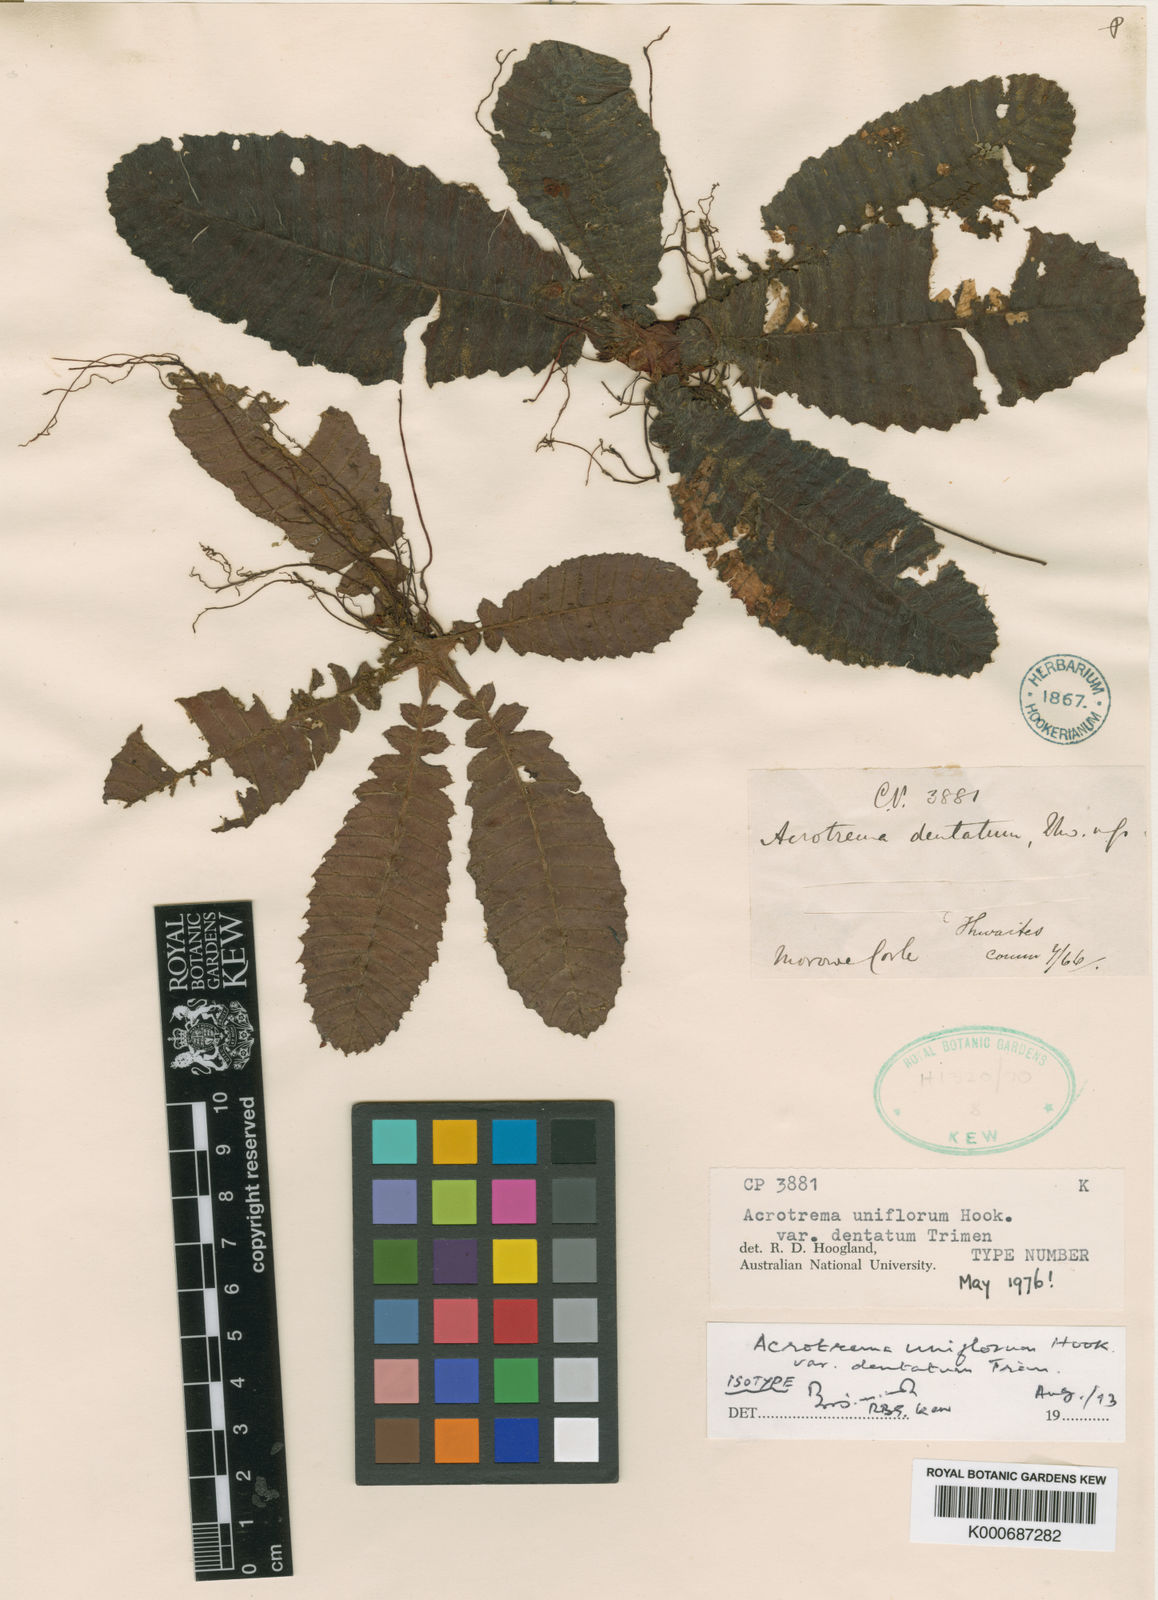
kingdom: Plantae
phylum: Tracheophyta
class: Magnoliopsida
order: Dilleniales
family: Dilleniaceae
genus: Acrotrema
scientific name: Acrotrema
